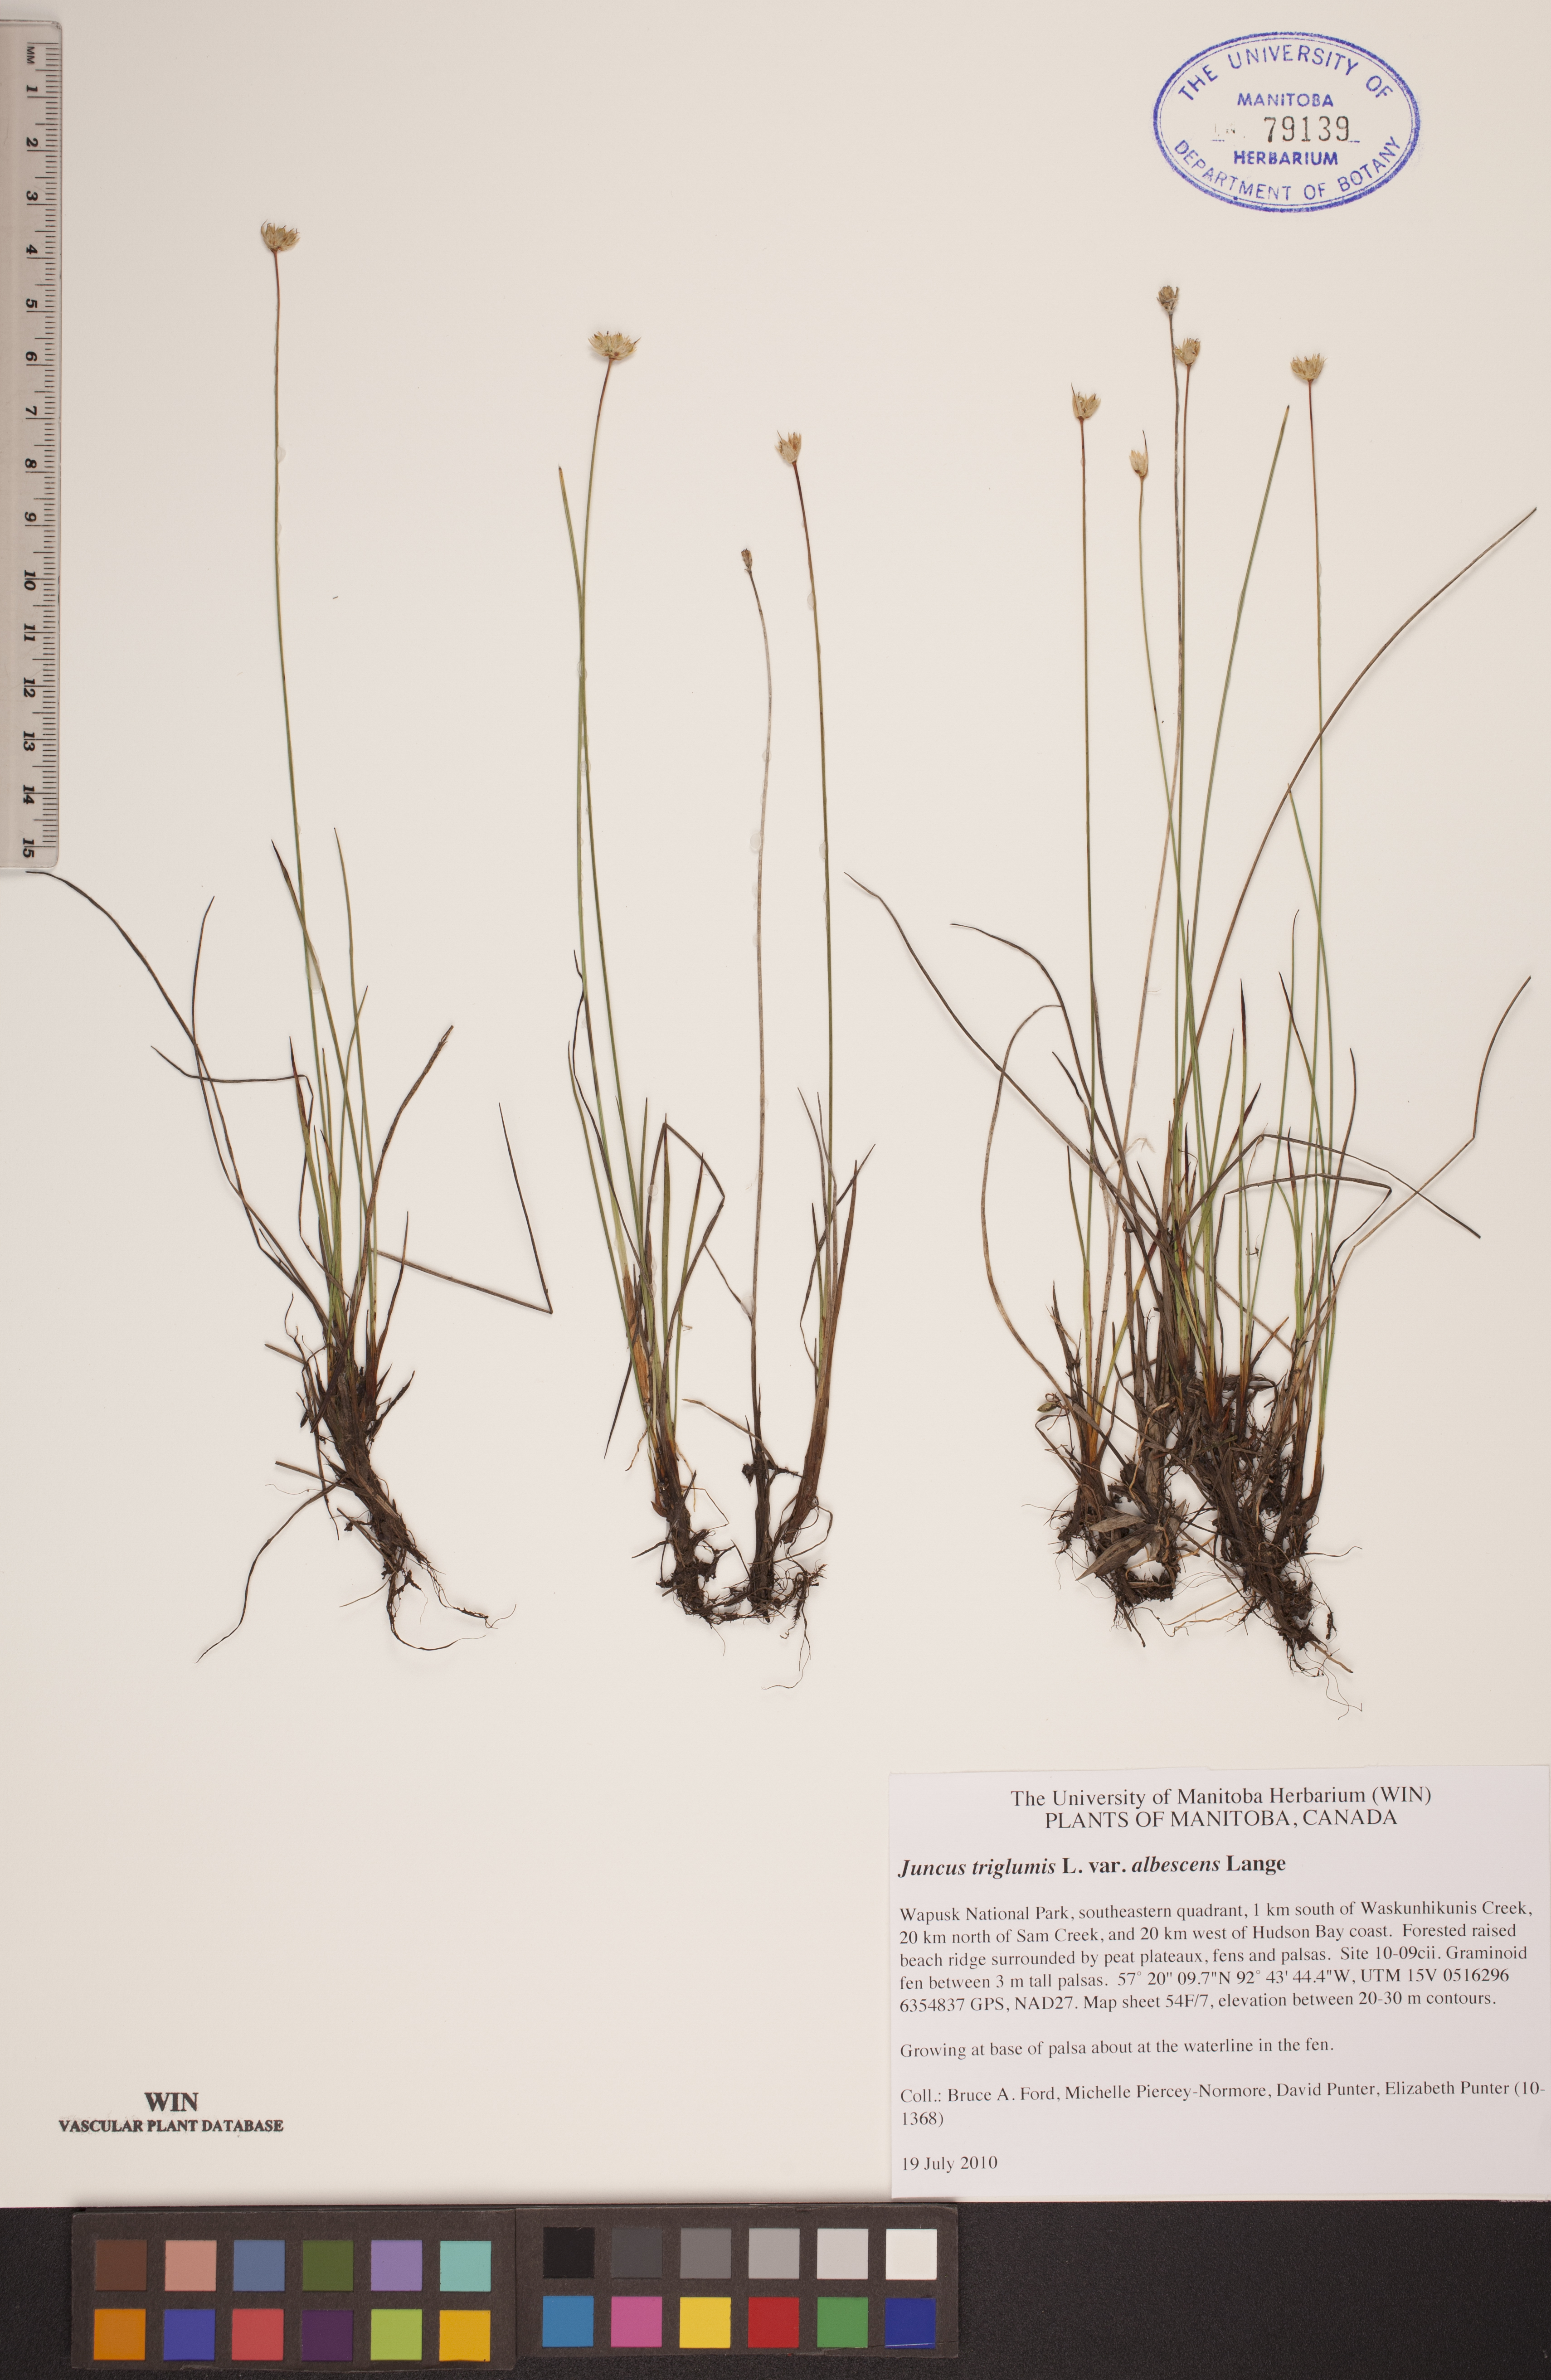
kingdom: Plantae
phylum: Tracheophyta
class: Liliopsida
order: Poales
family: Juncaceae
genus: Juncus
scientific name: Juncus albescens
